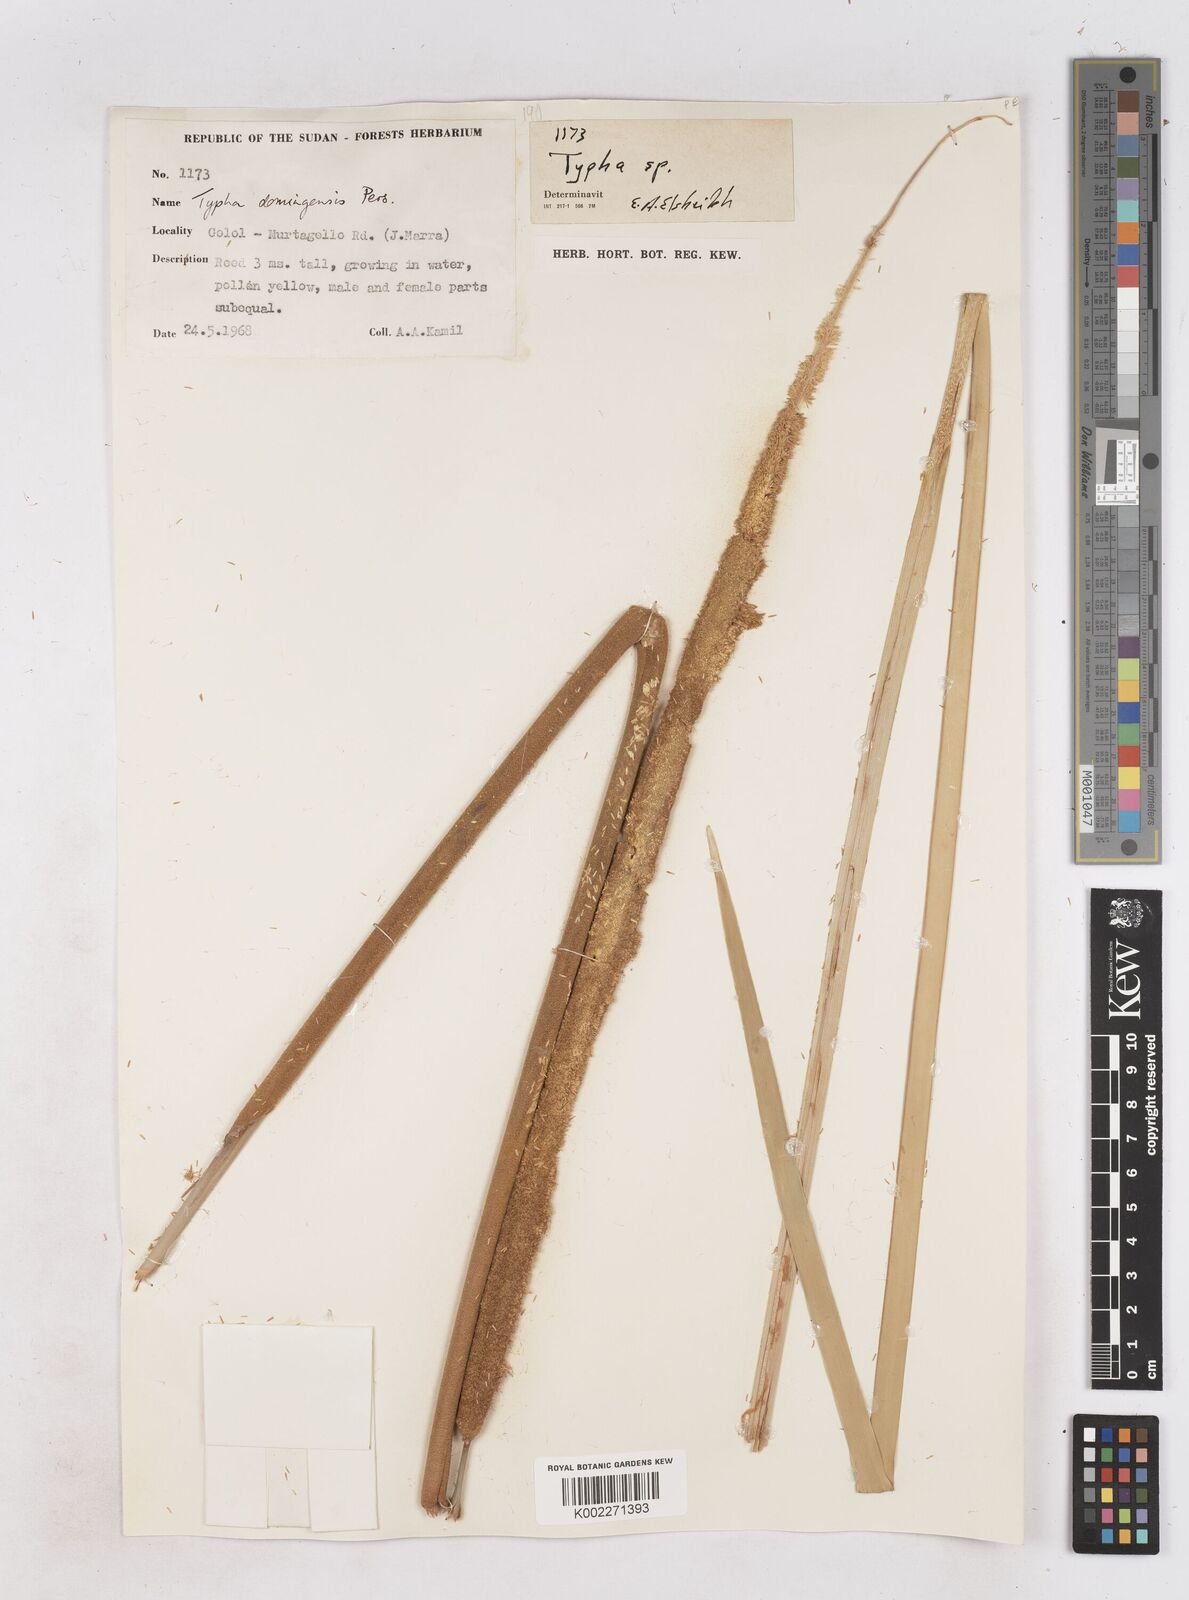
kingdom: Plantae
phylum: Tracheophyta
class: Liliopsida
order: Poales
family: Typhaceae
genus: Typha
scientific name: Typha domingensis
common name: Southern cattail
